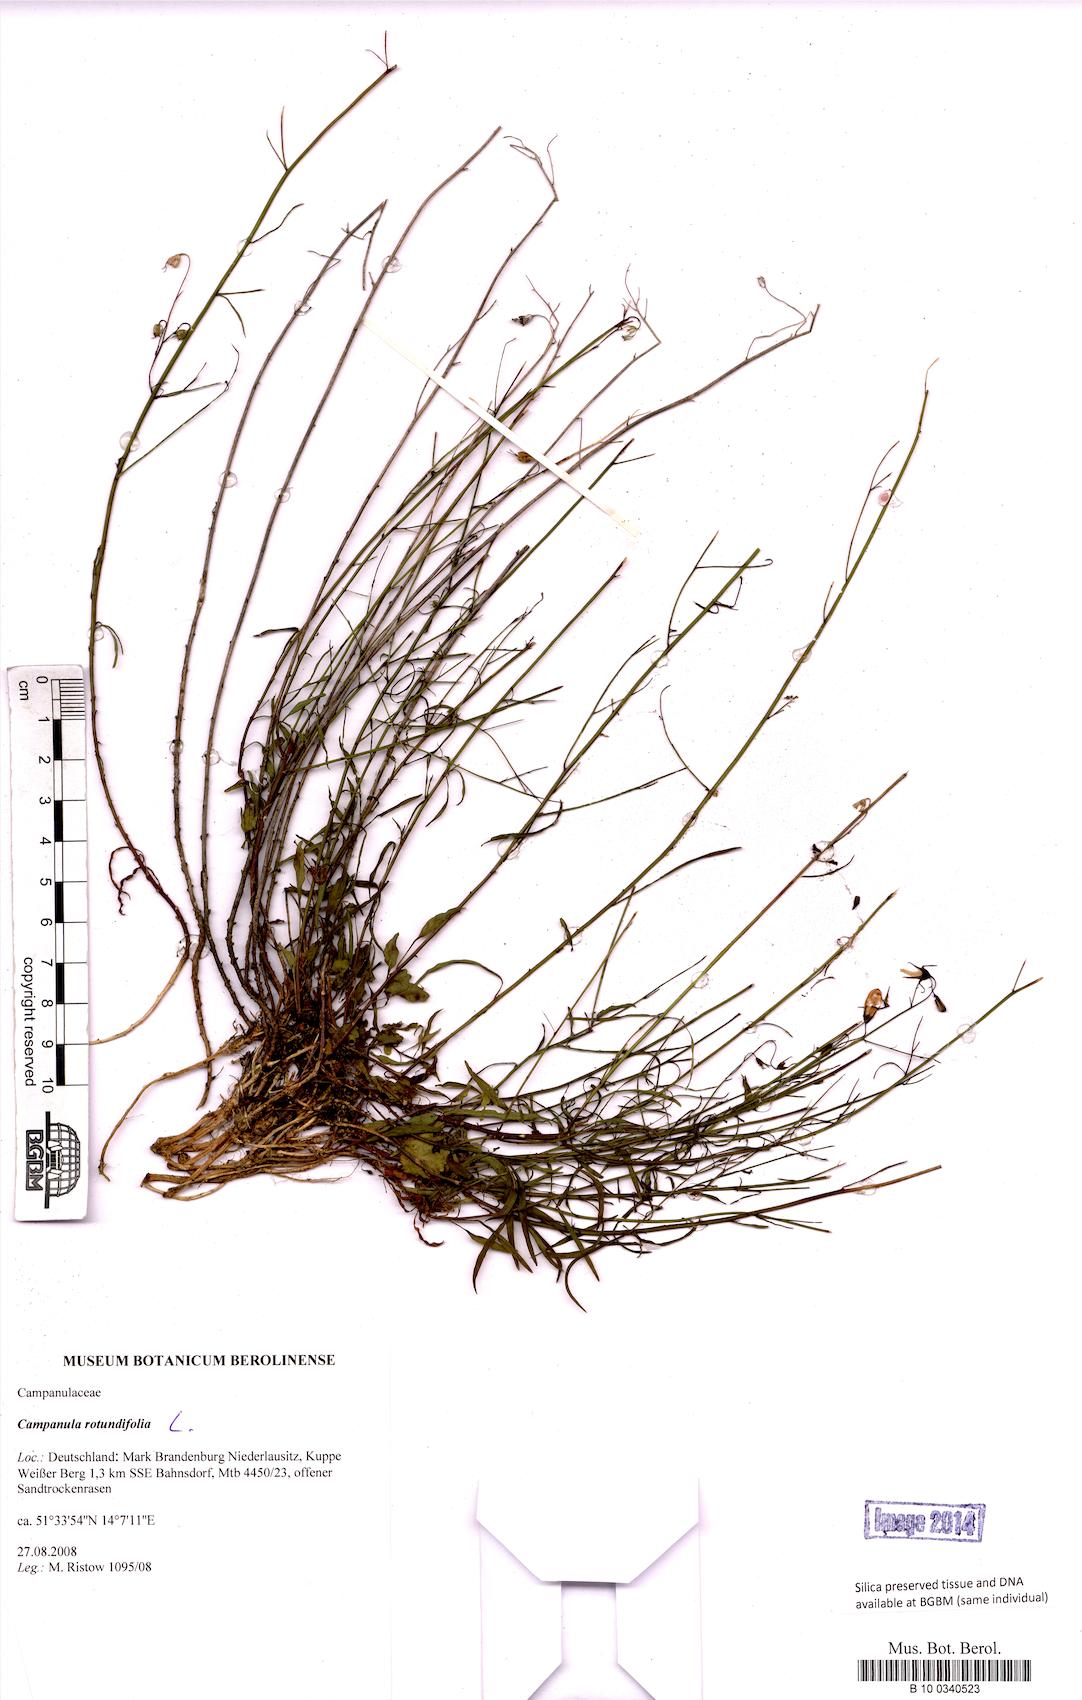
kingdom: Plantae
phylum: Tracheophyta
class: Magnoliopsida
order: Asterales
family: Campanulaceae
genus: Campanula
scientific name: Campanula rotundifolia
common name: Harebell
